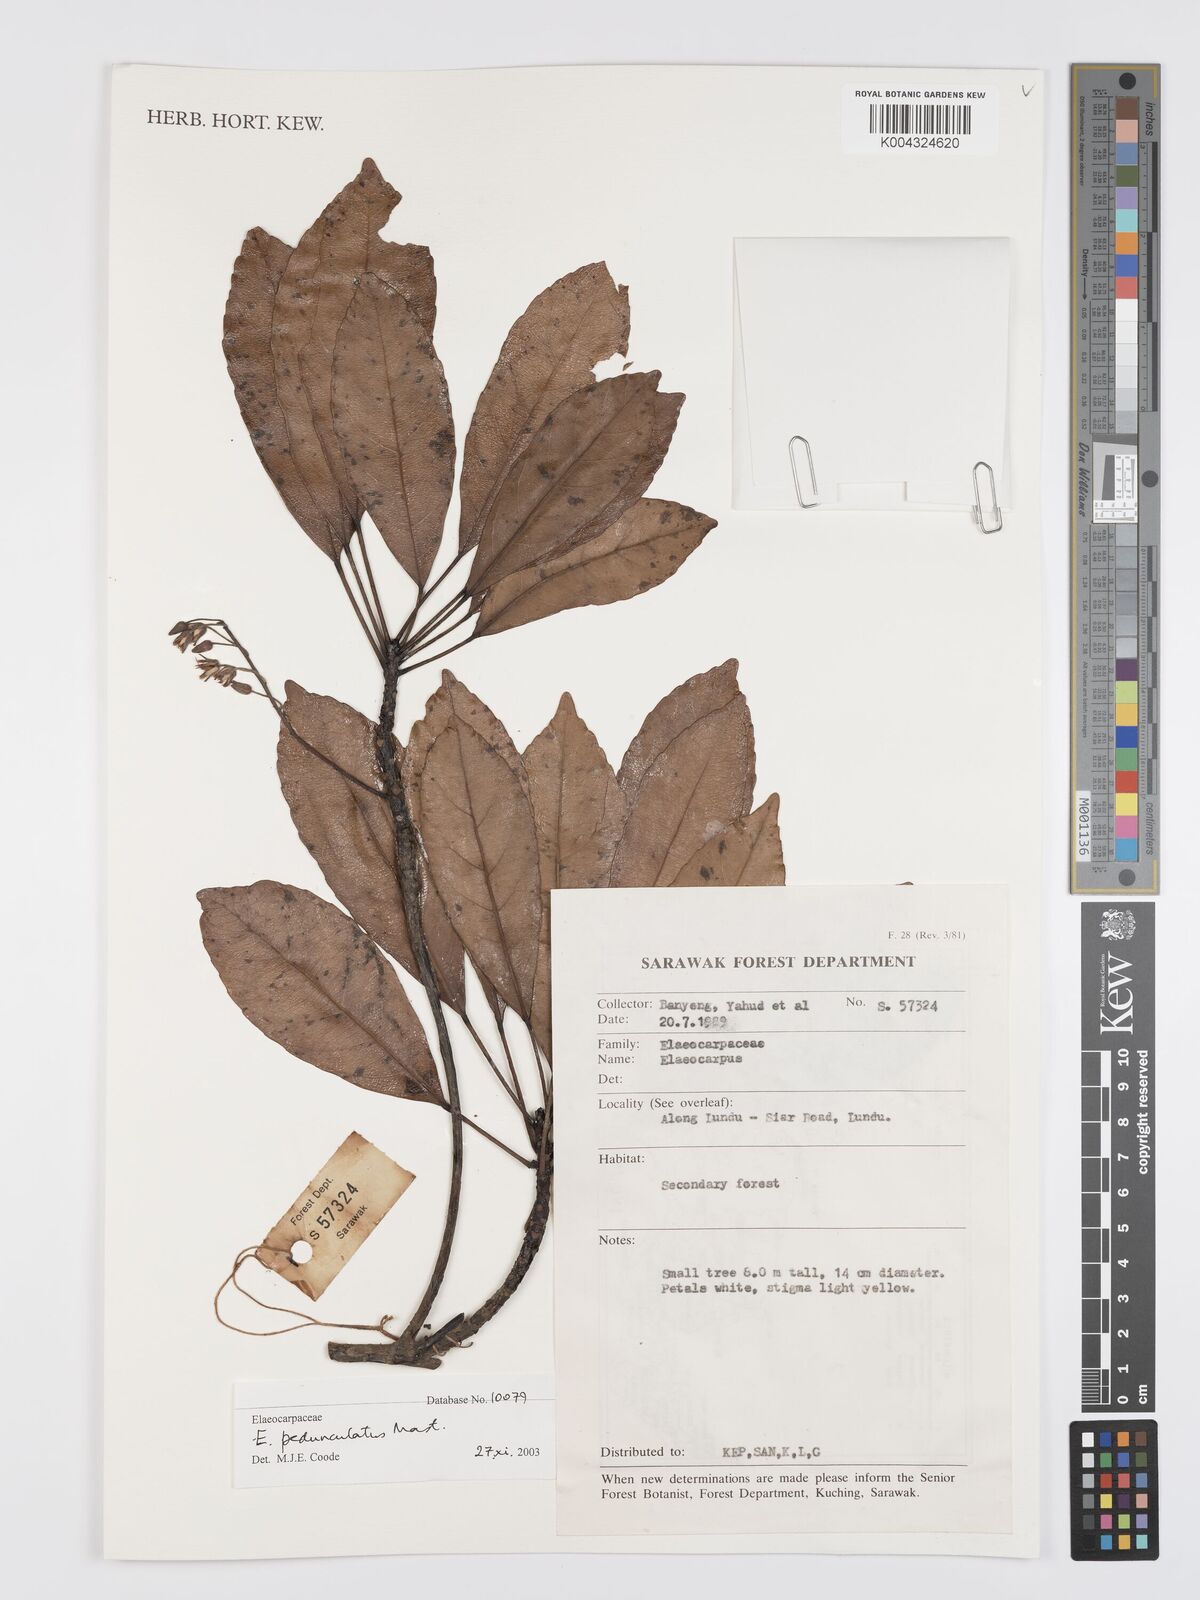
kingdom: Plantae
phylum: Tracheophyta
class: Magnoliopsida
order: Oxalidales
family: Elaeocarpaceae
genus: Elaeocarpus
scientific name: Elaeocarpus pedunculatus
